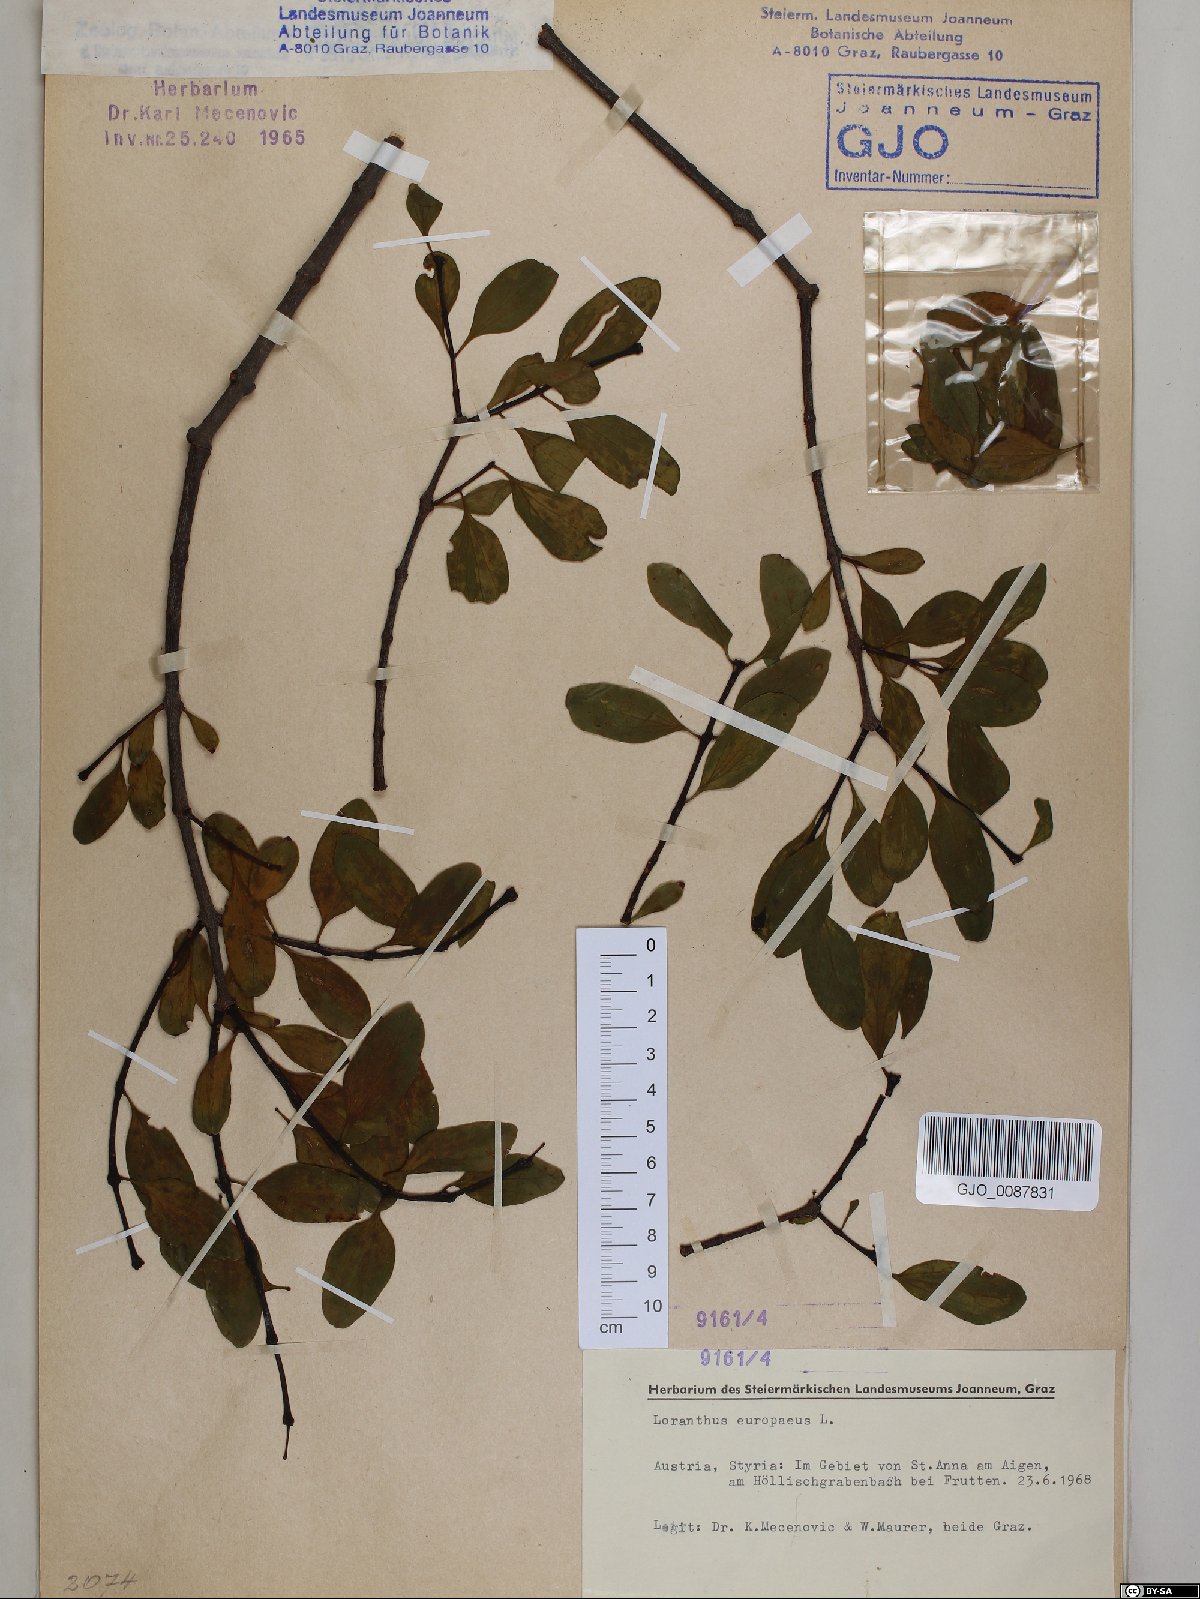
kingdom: Plantae
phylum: Tracheophyta
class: Magnoliopsida
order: Santalales
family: Loranthaceae
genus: Loranthus
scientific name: Loranthus europaeus
